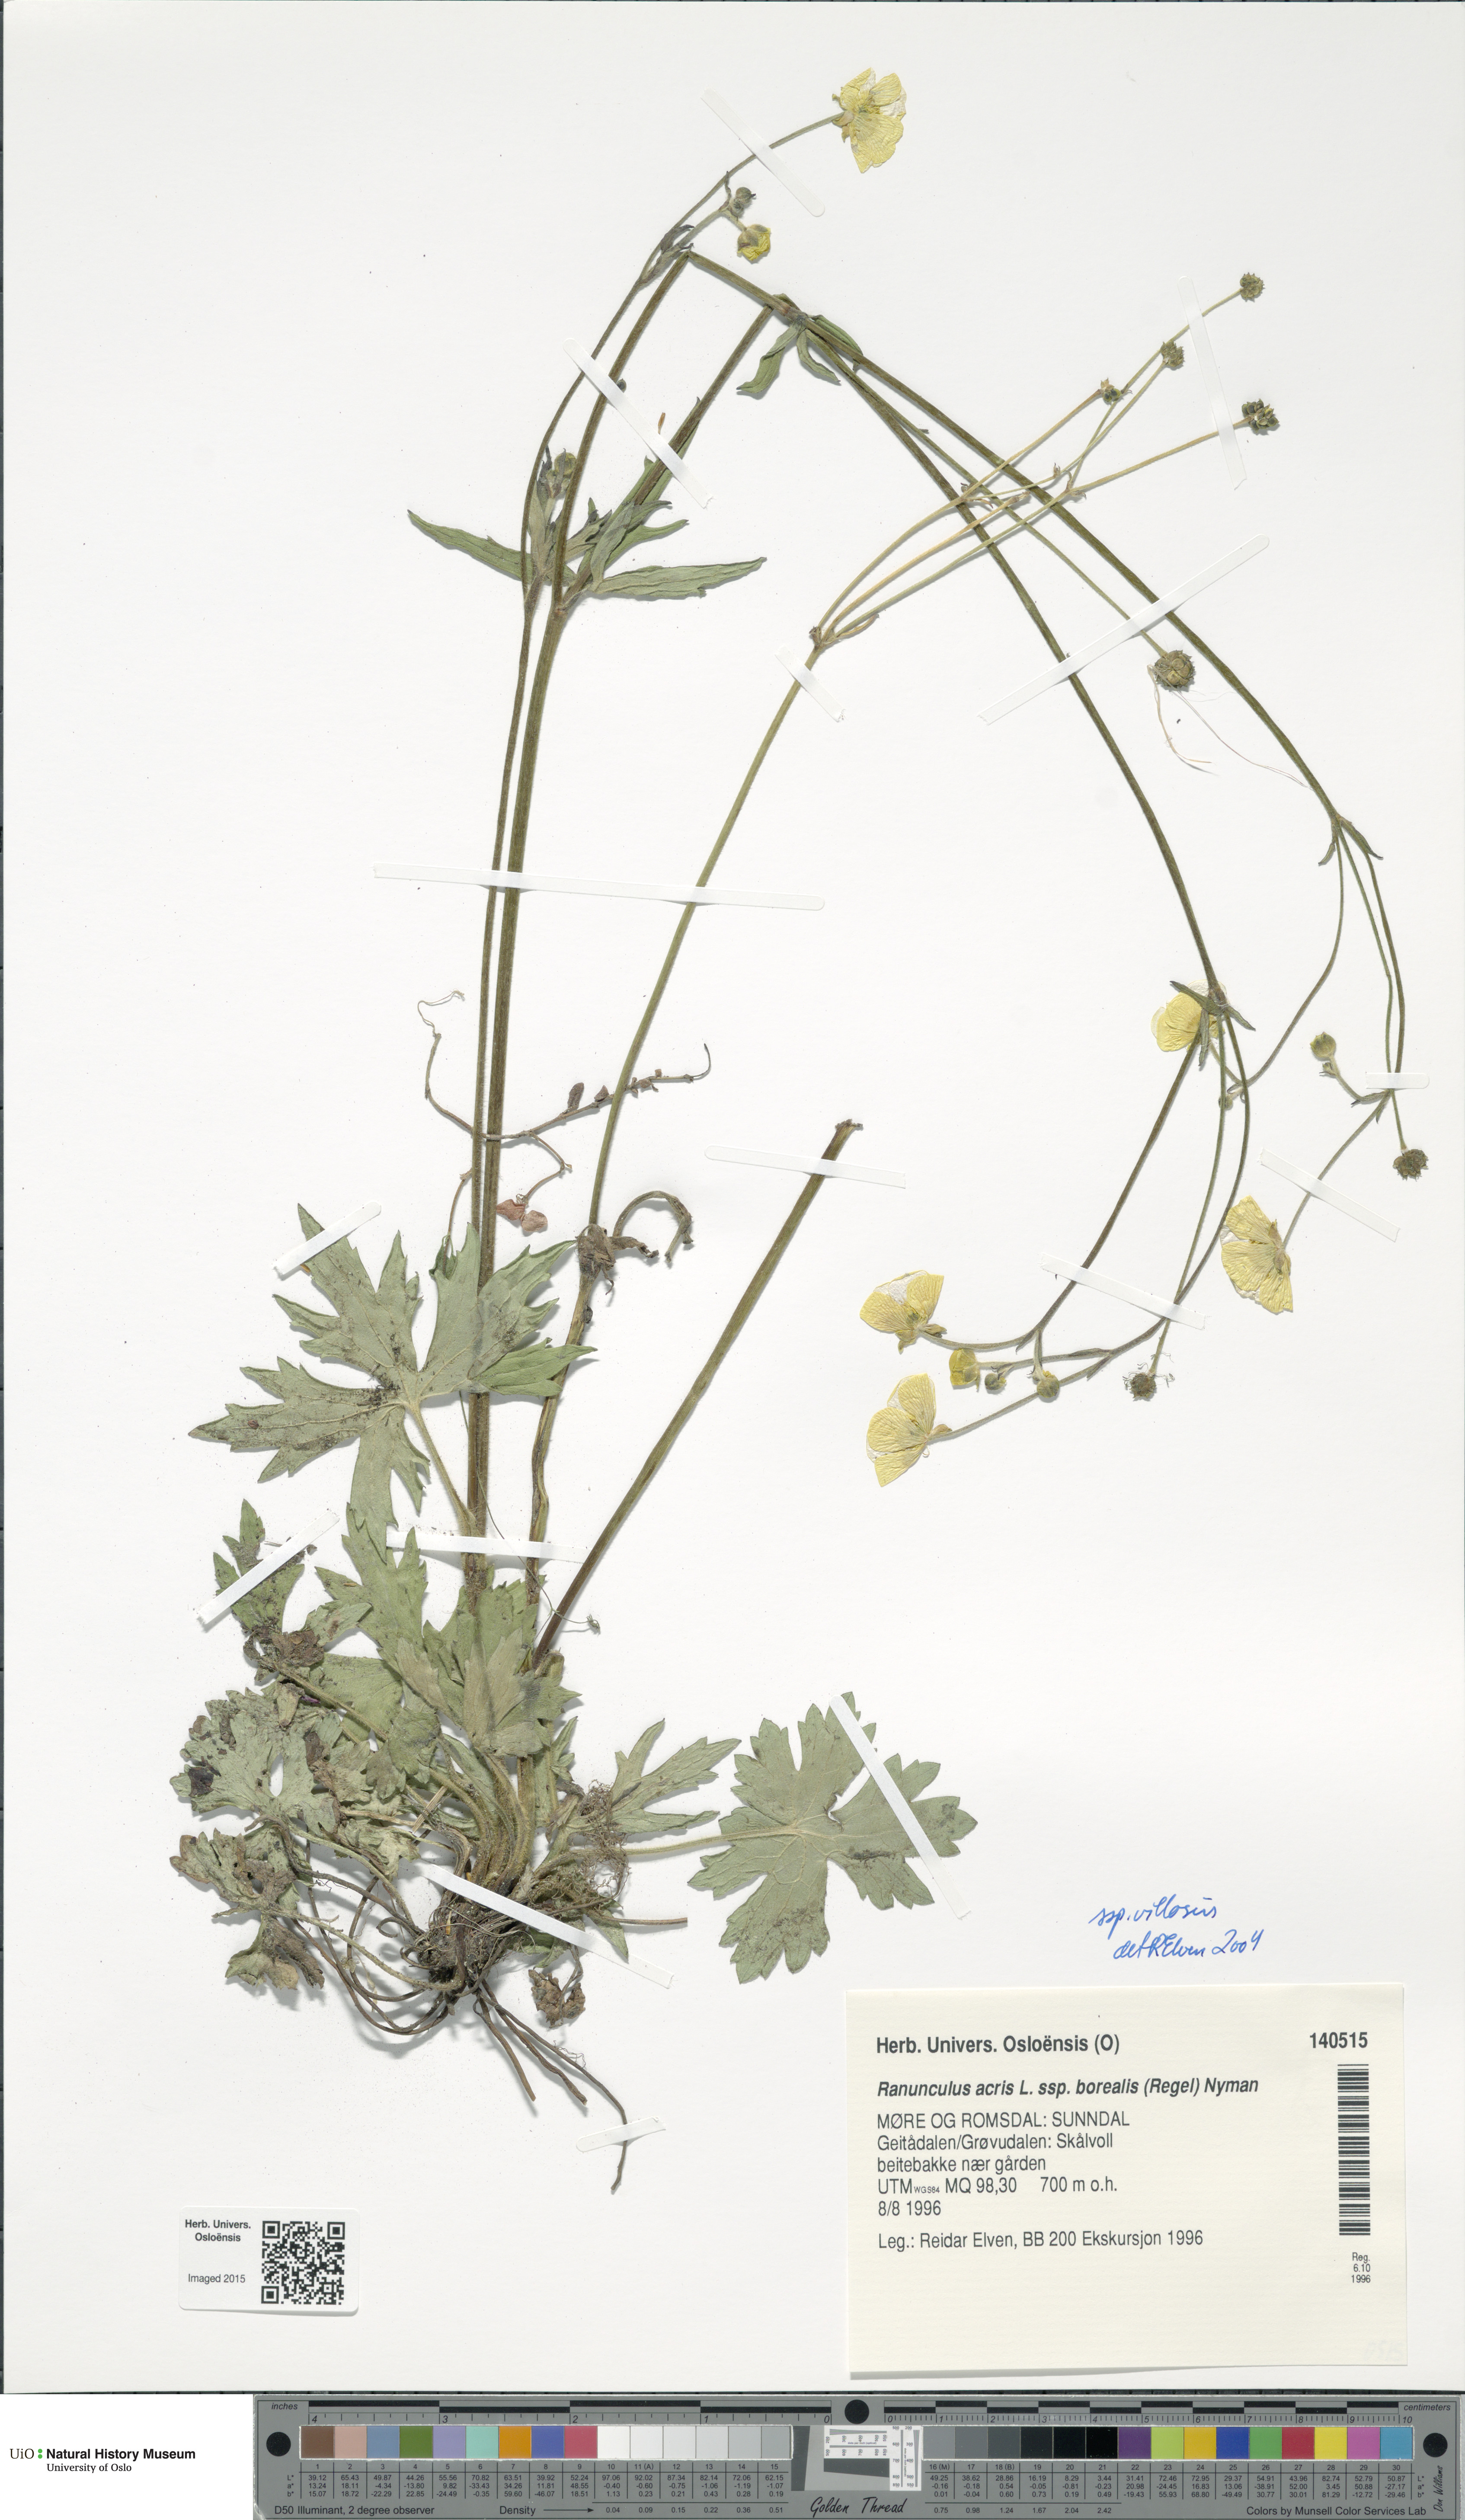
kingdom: Plantae
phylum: Tracheophyta
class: Magnoliopsida
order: Ranunculales
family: Ranunculaceae
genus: Ranunculus
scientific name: Ranunculus propinquus
